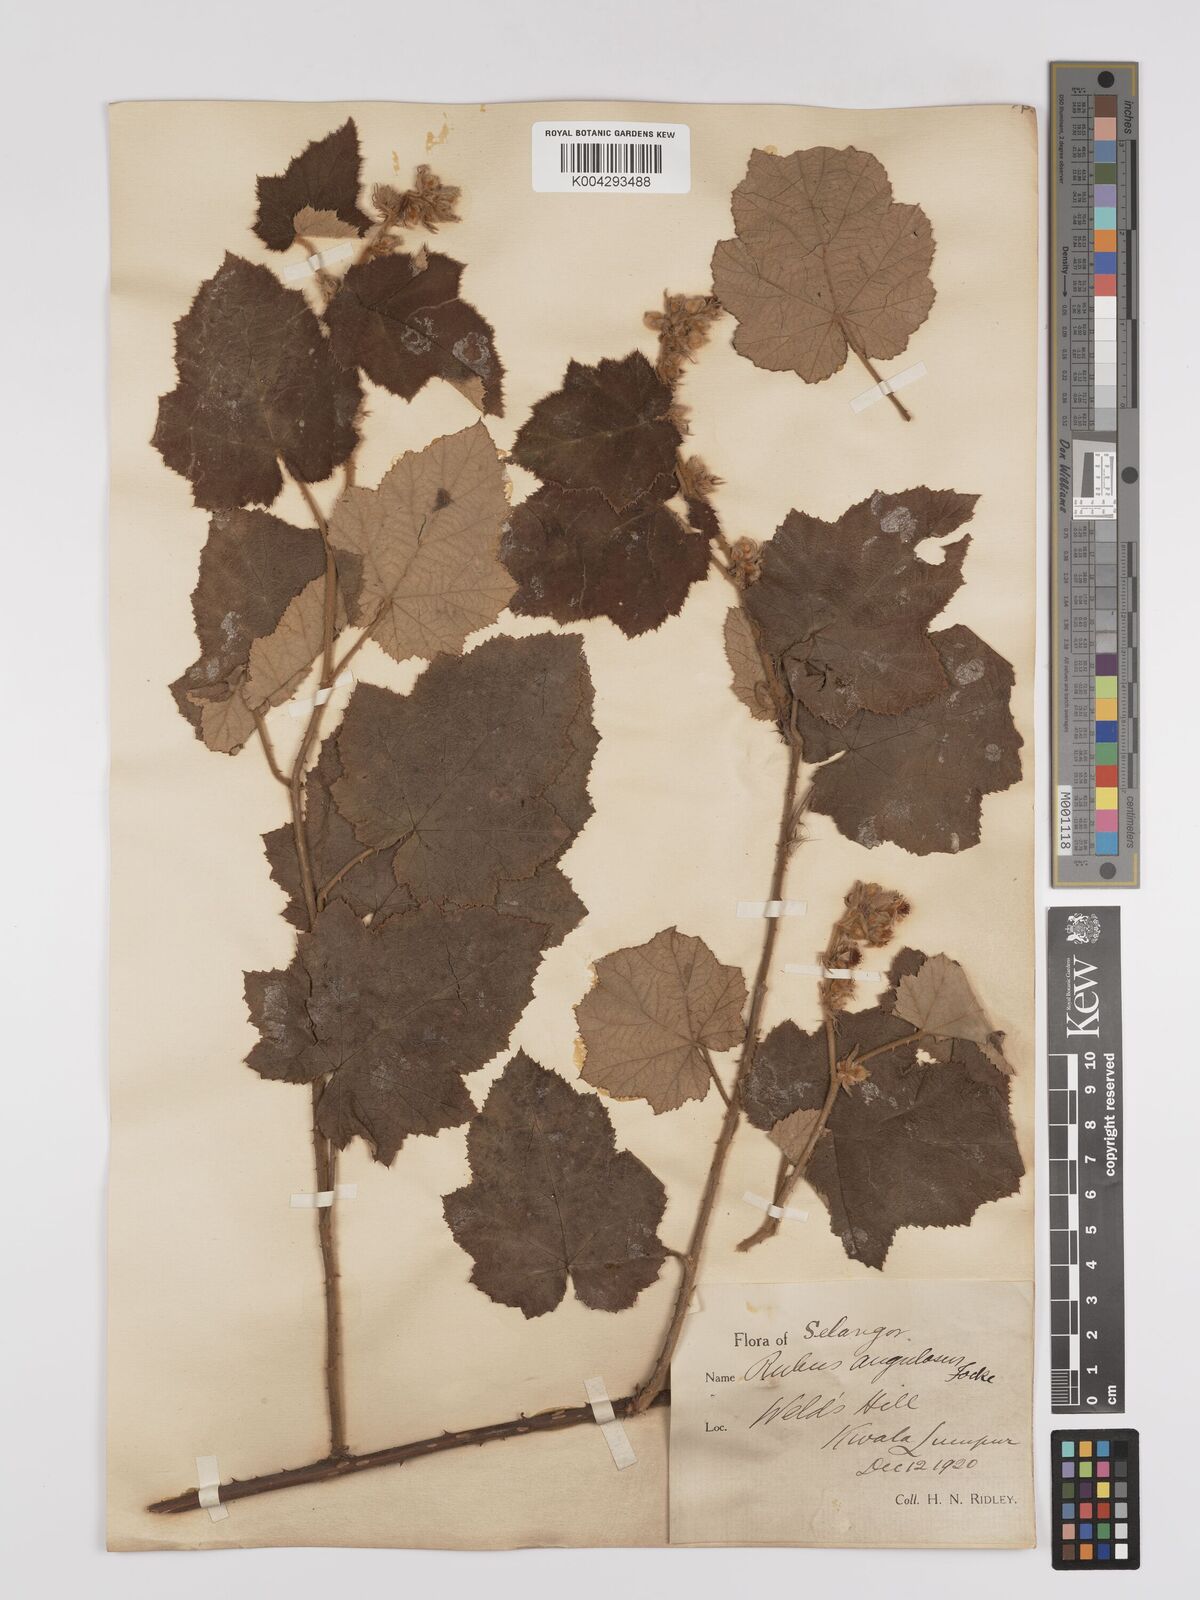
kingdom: Plantae
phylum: Tracheophyta
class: Magnoliopsida
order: Rosales
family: Rosaceae
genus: Rubus
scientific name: Rubus moluccanus
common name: Wild raspberry
